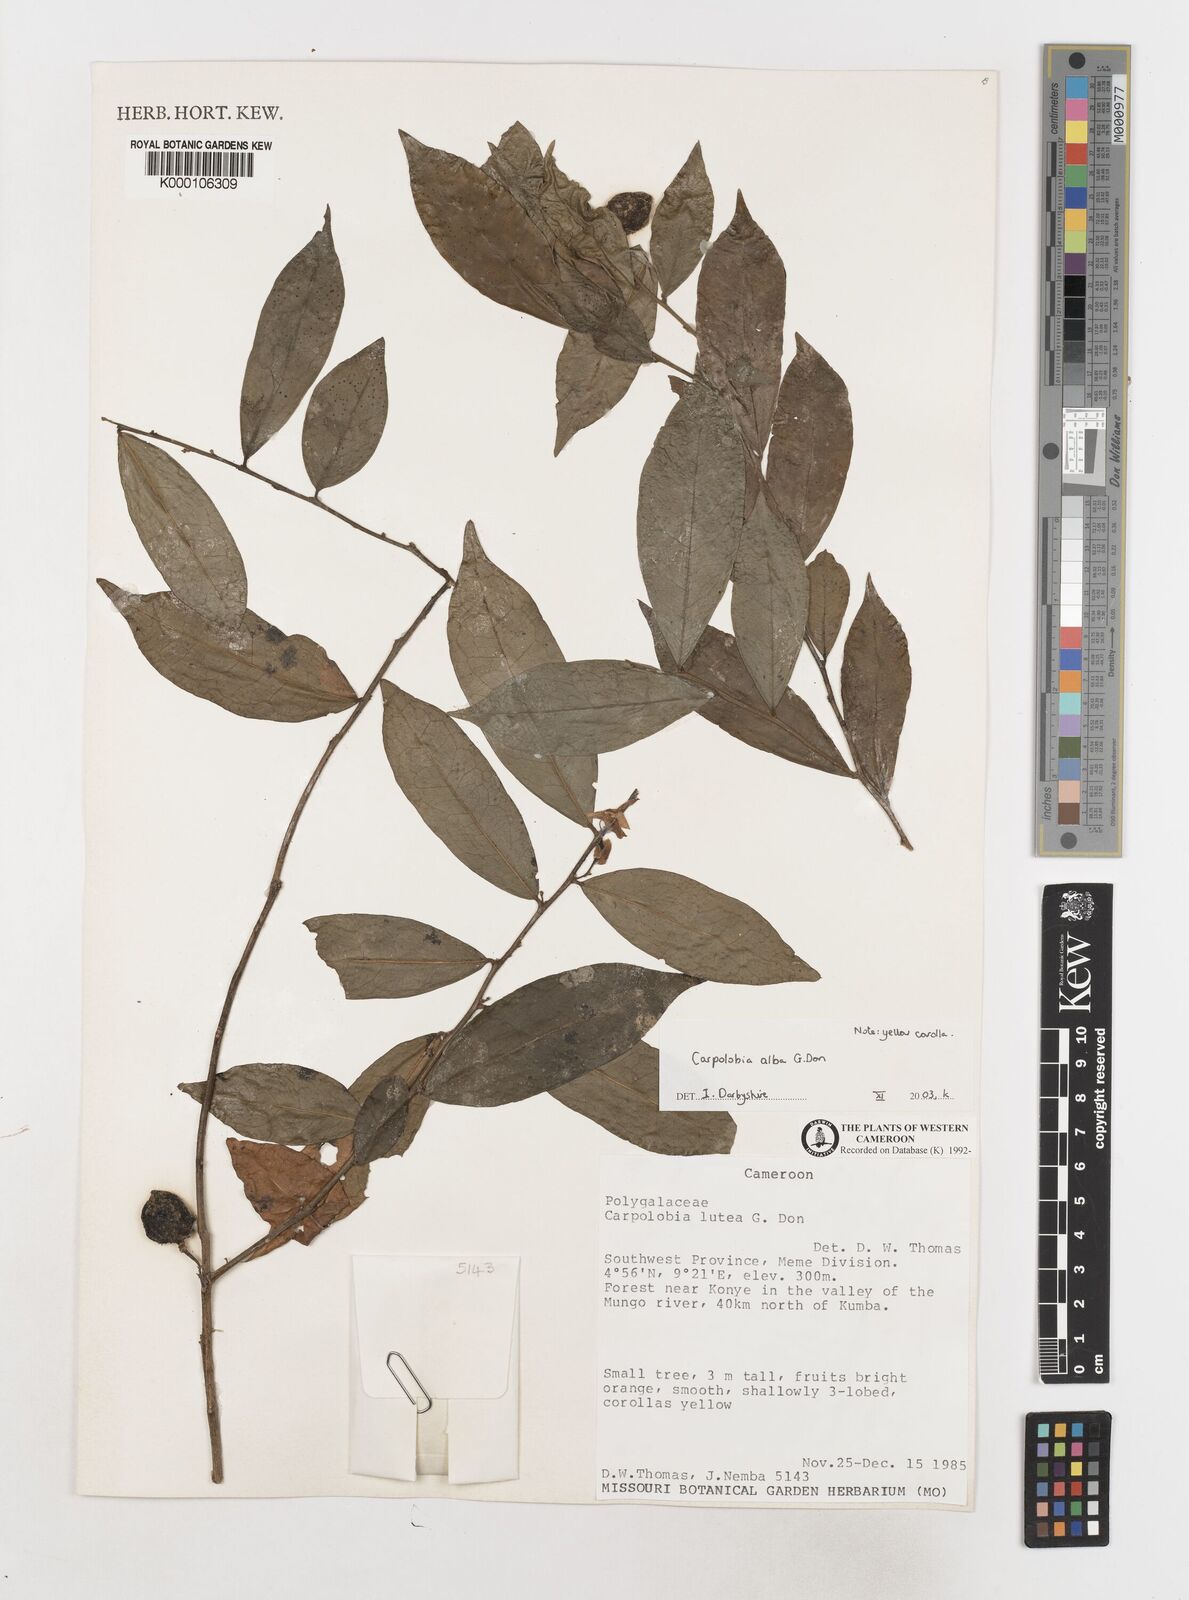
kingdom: Plantae
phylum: Tracheophyta
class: Magnoliopsida
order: Fabales
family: Polygalaceae
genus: Carpolobia
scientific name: Carpolobia alba
